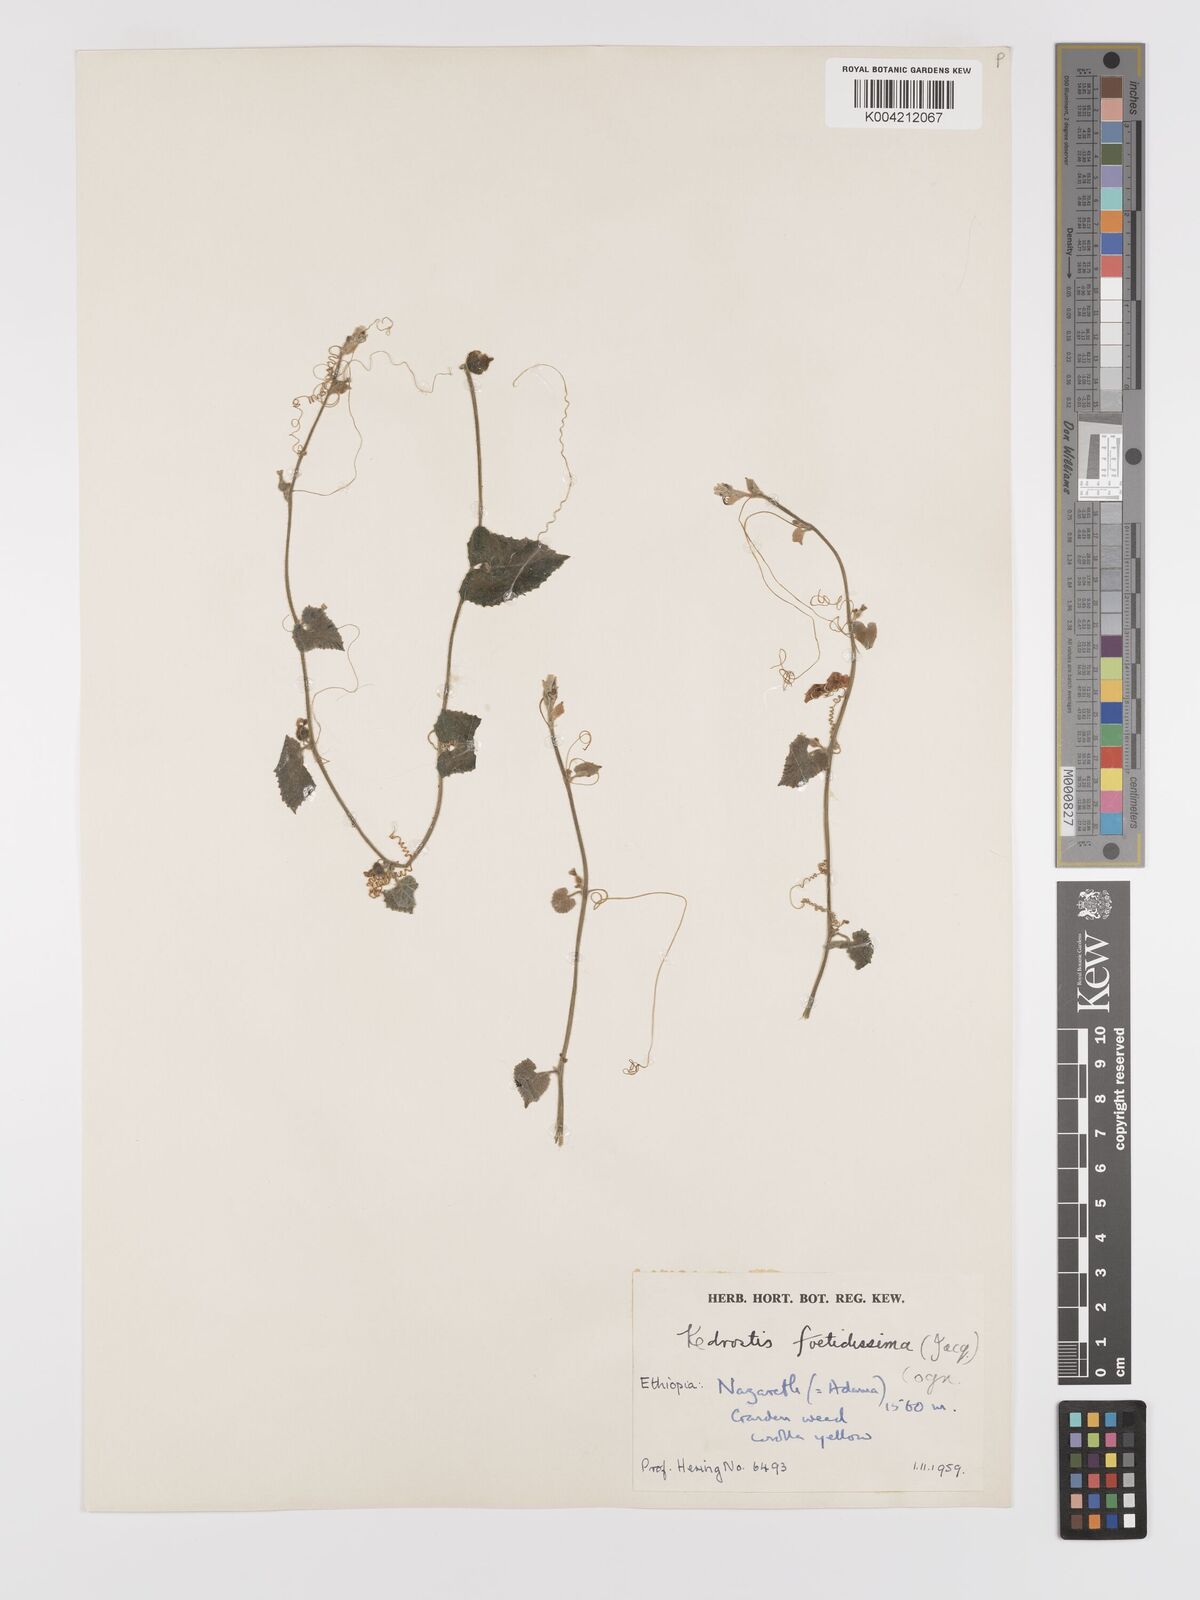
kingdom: Plantae
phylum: Tracheophyta
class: Magnoliopsida
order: Cucurbitales
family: Cucurbitaceae
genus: Kedrostis
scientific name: Kedrostis foetidissima
